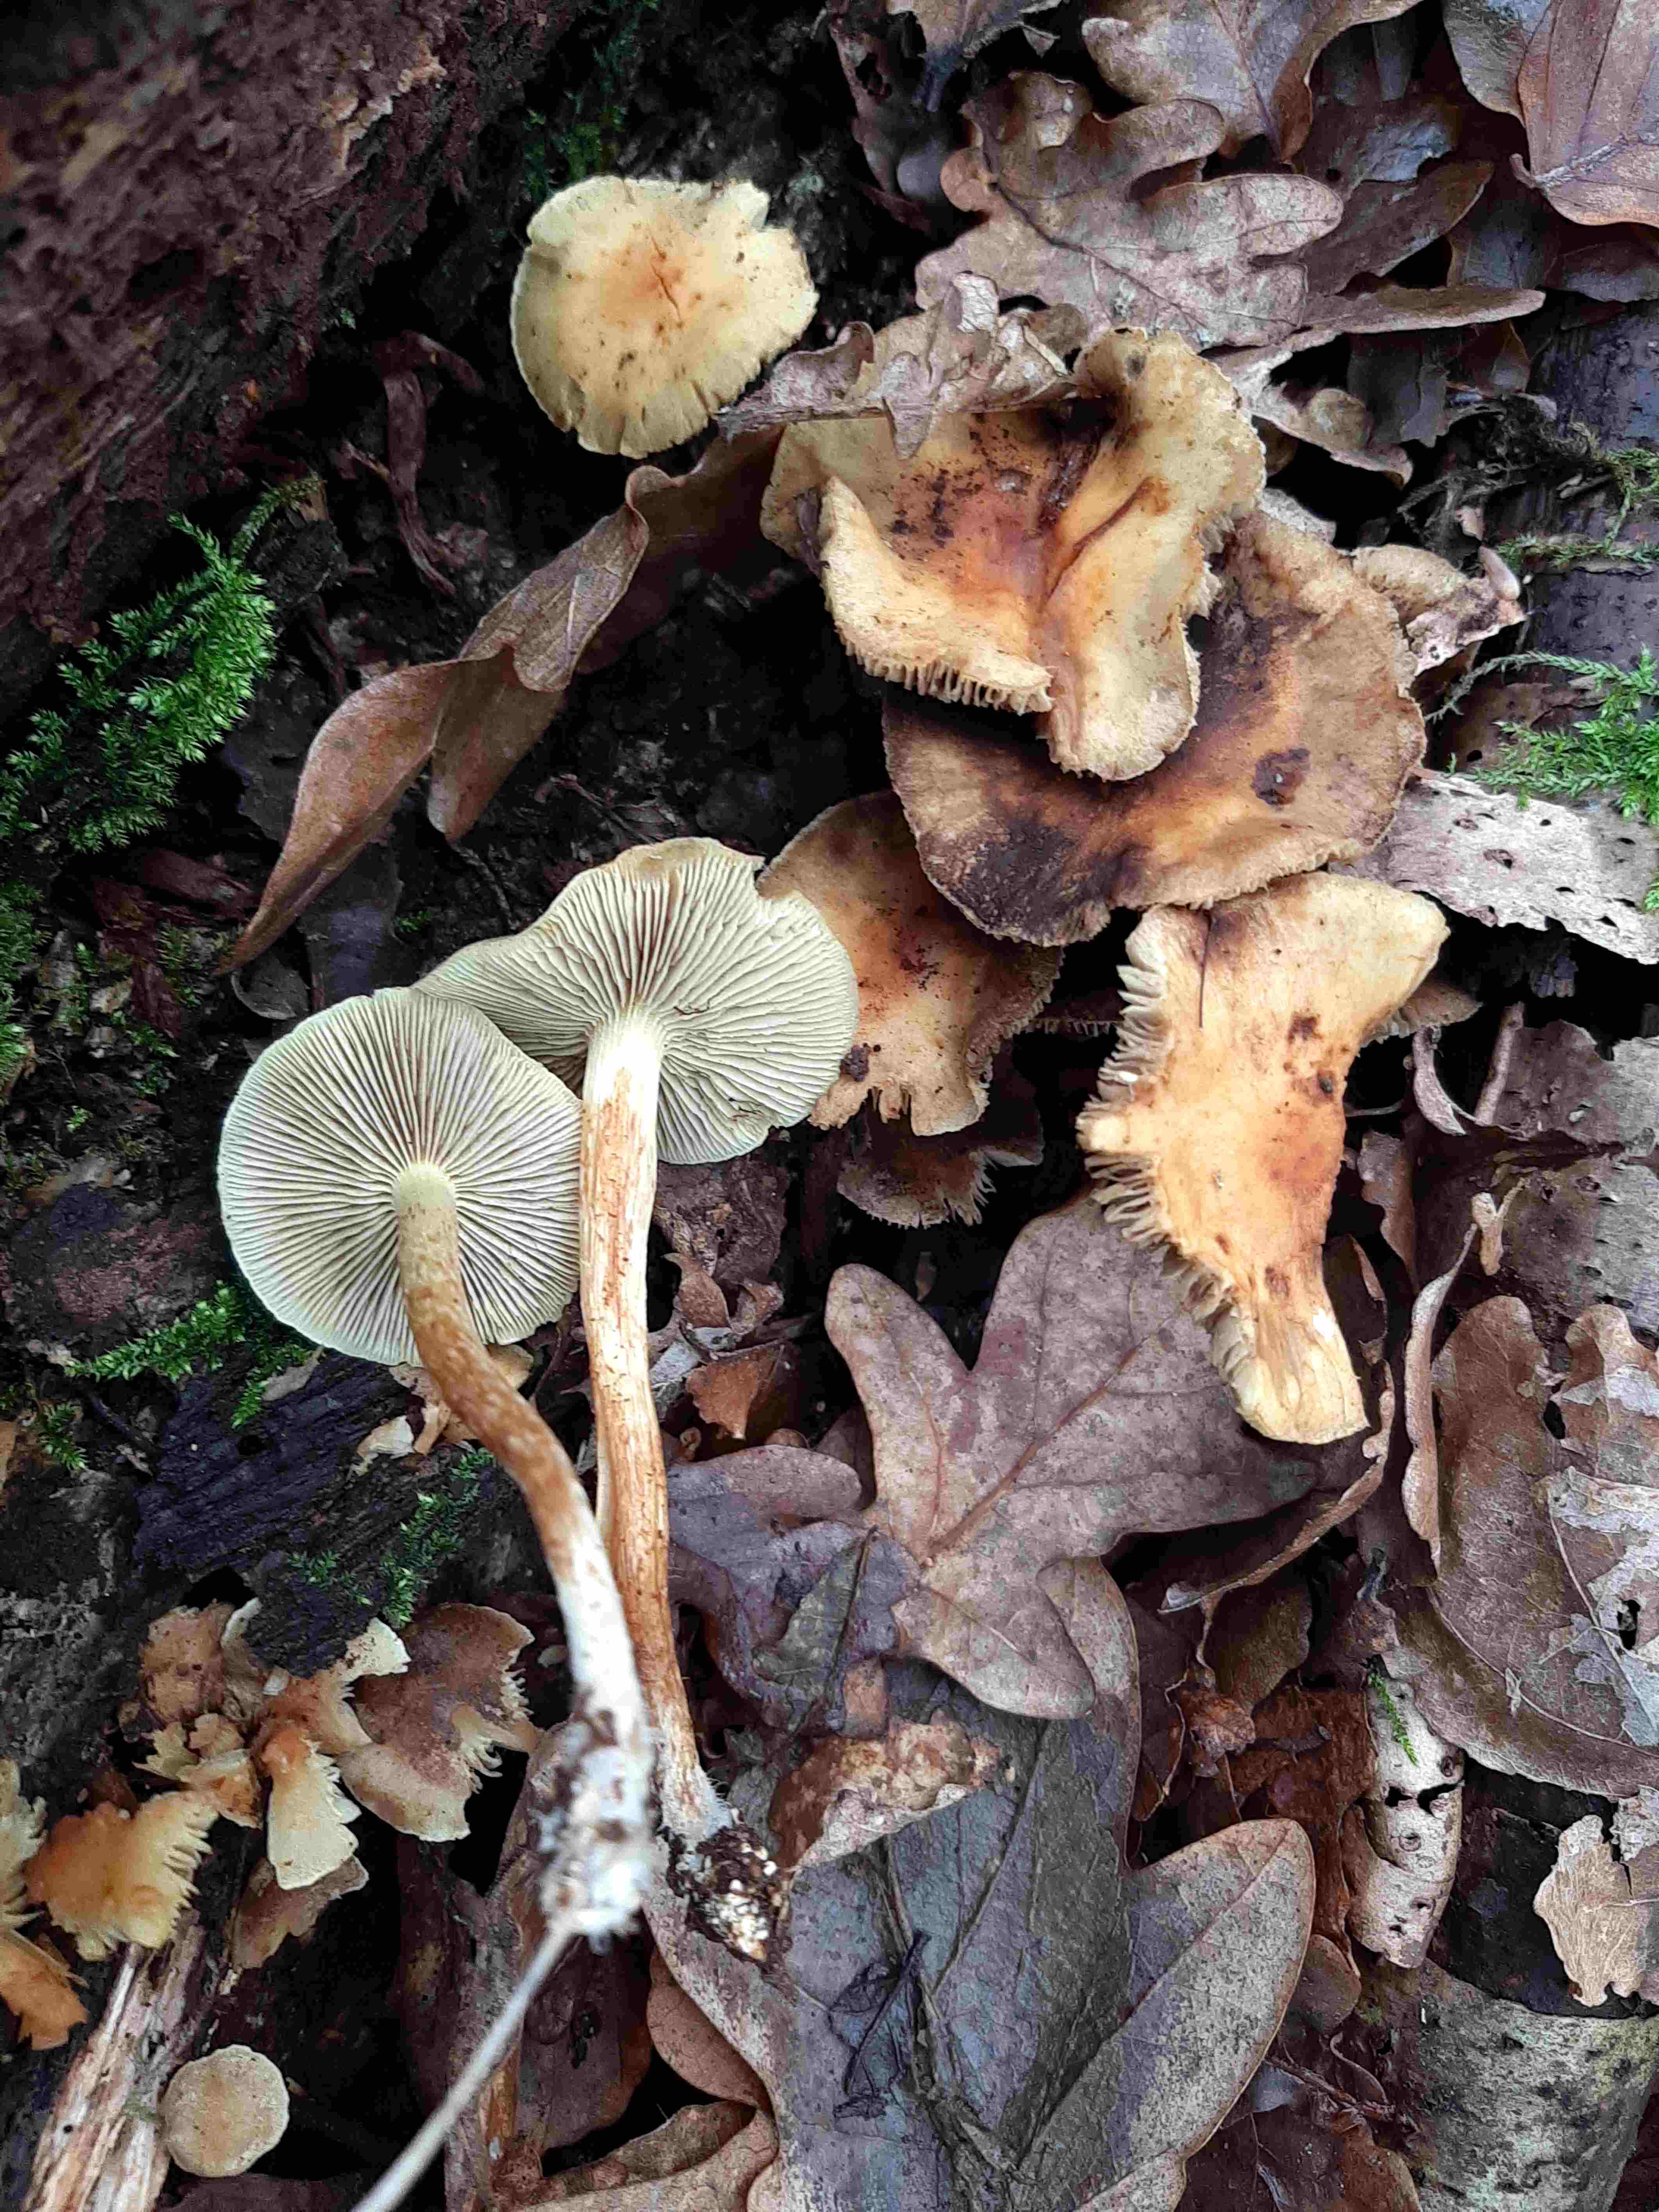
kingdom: Fungi
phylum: Basidiomycota
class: Agaricomycetes
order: Agaricales
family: Strophariaceae
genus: Hypholoma
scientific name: Hypholoma fasciculare
